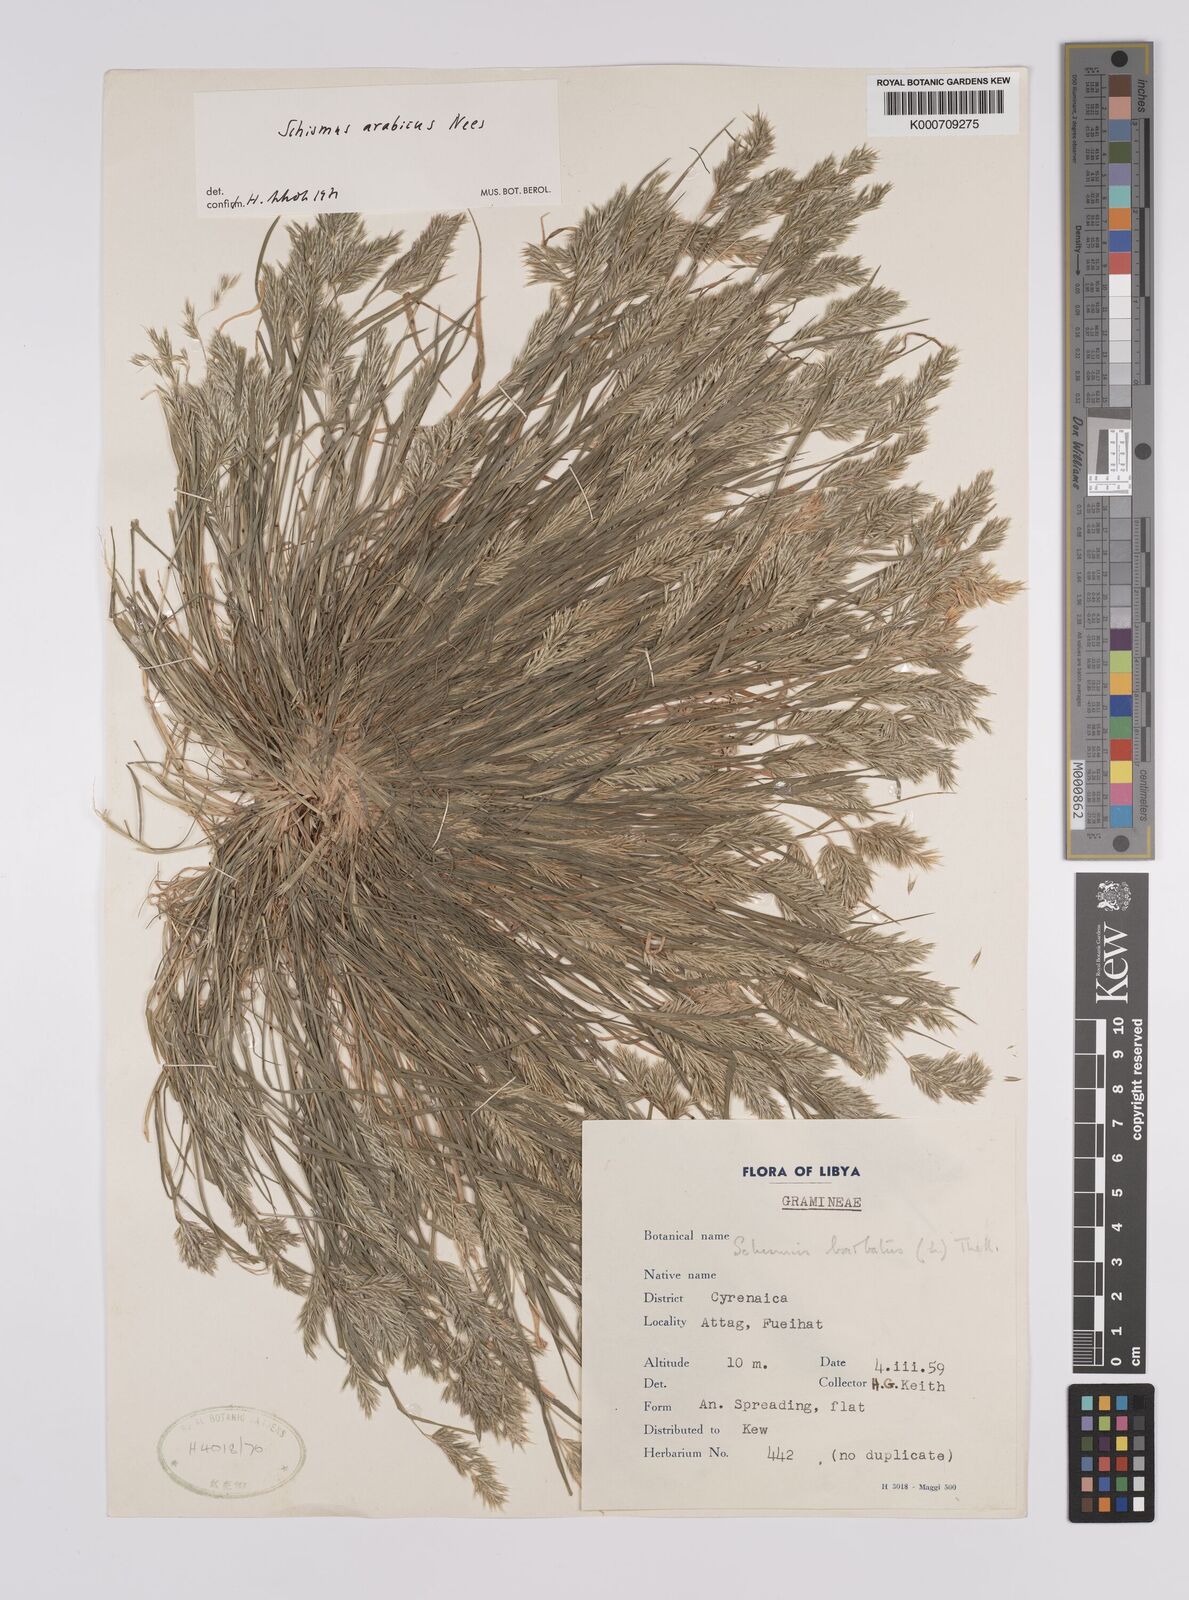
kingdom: Plantae
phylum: Tracheophyta
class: Liliopsida
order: Poales
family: Poaceae
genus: Schismus
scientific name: Schismus arabicus
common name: Arabian schismus
